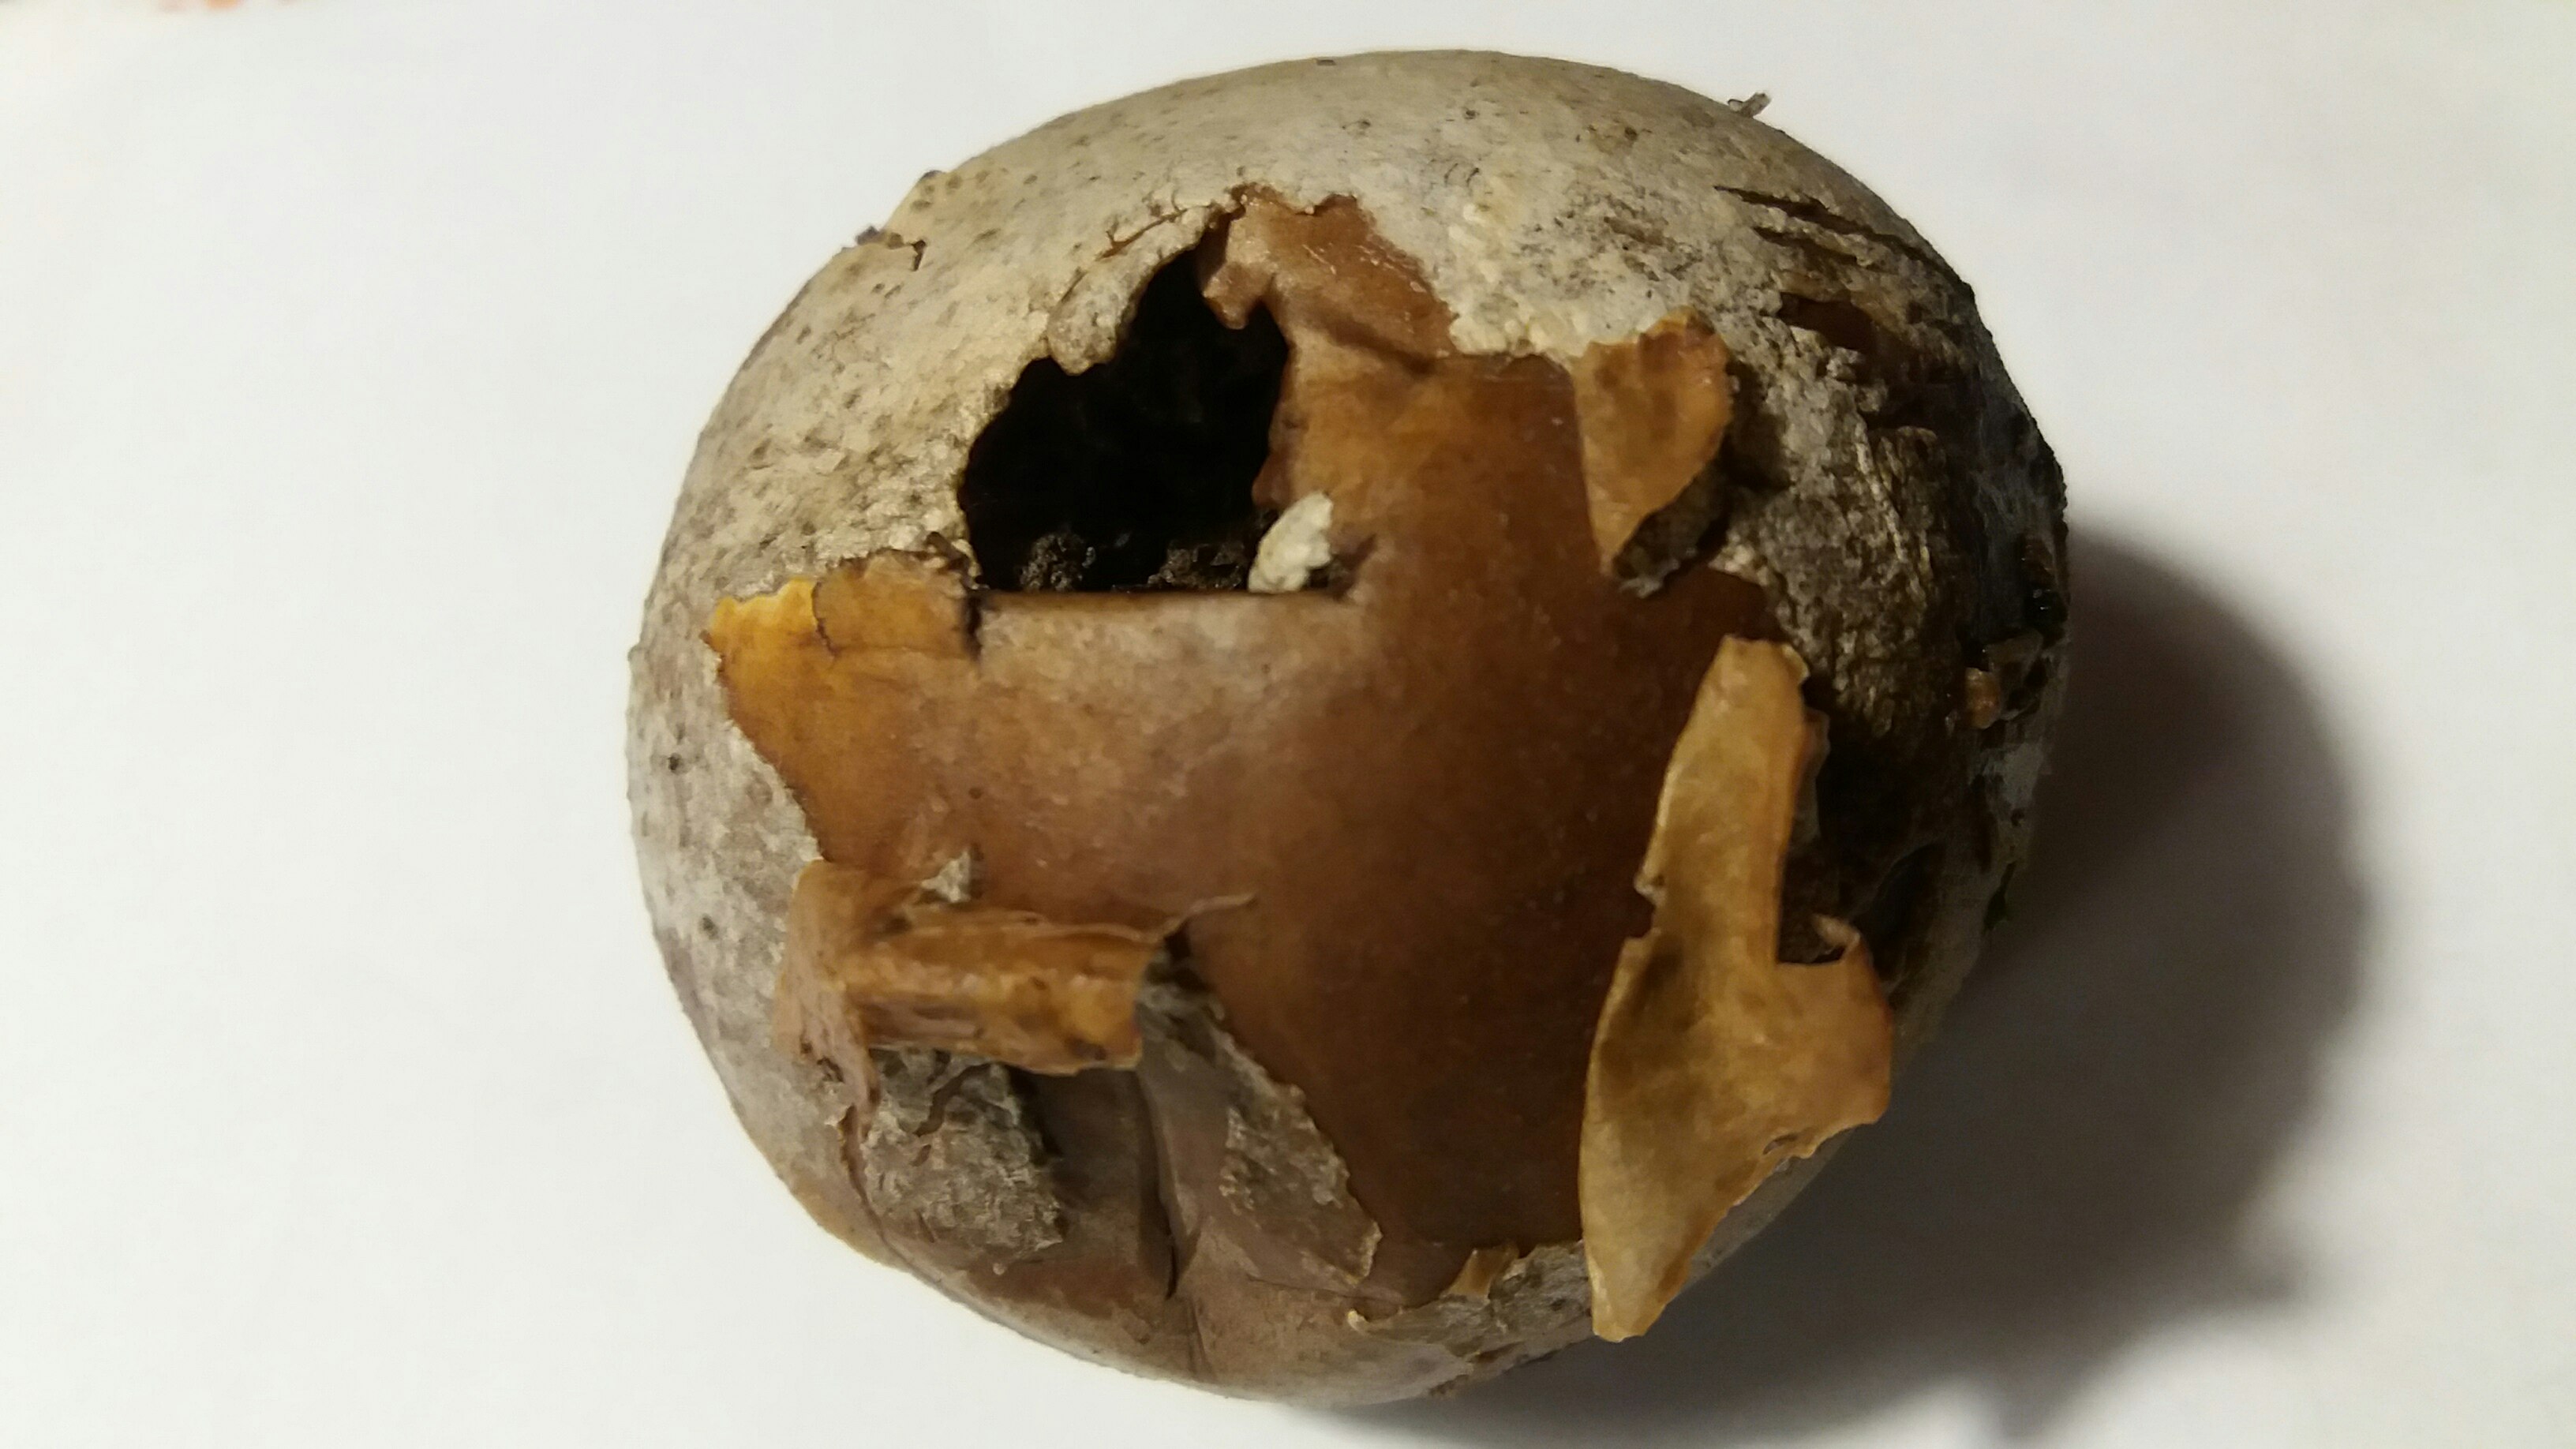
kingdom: Fungi
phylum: Basidiomycota
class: Agaricomycetes
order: Agaricales
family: Lycoperdaceae
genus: Bovista
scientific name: Bovista nigrescens
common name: sortagtig bovist
